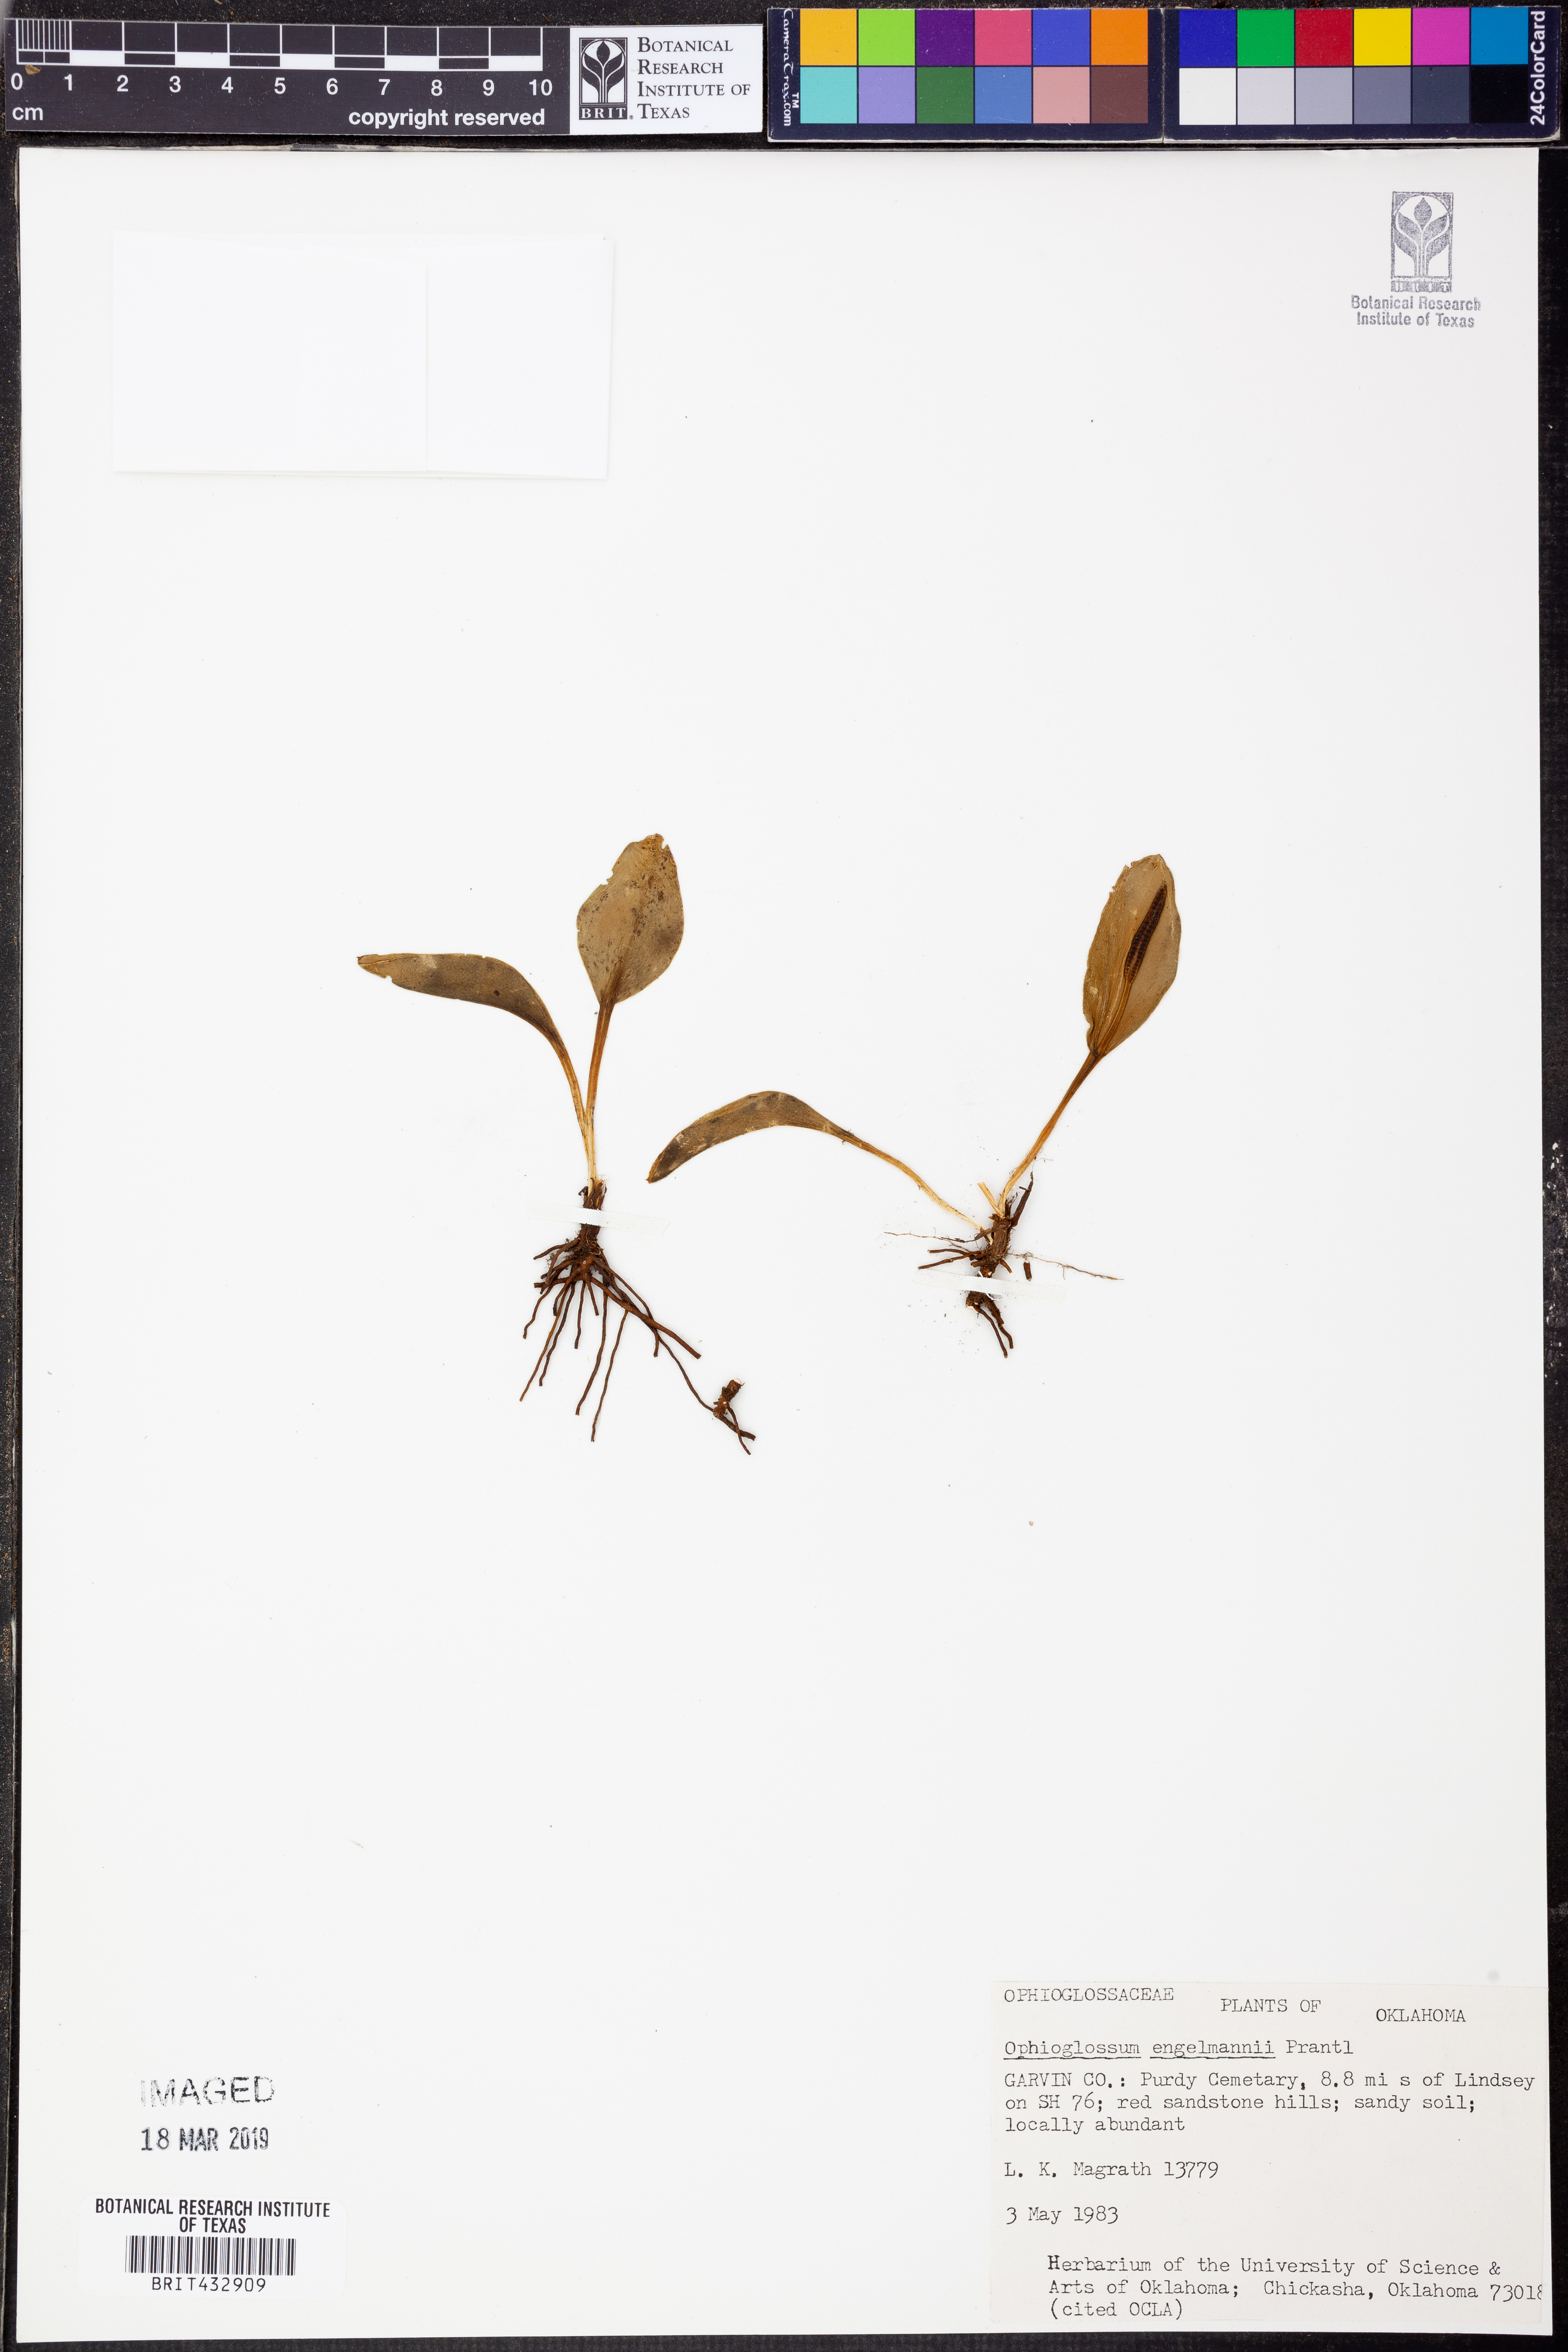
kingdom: Plantae
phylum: Tracheophyta
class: Polypodiopsida
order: Ophioglossales
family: Ophioglossaceae
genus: Ophioglossum
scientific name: Ophioglossum engelmannii
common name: Limestone adder's-tongue
